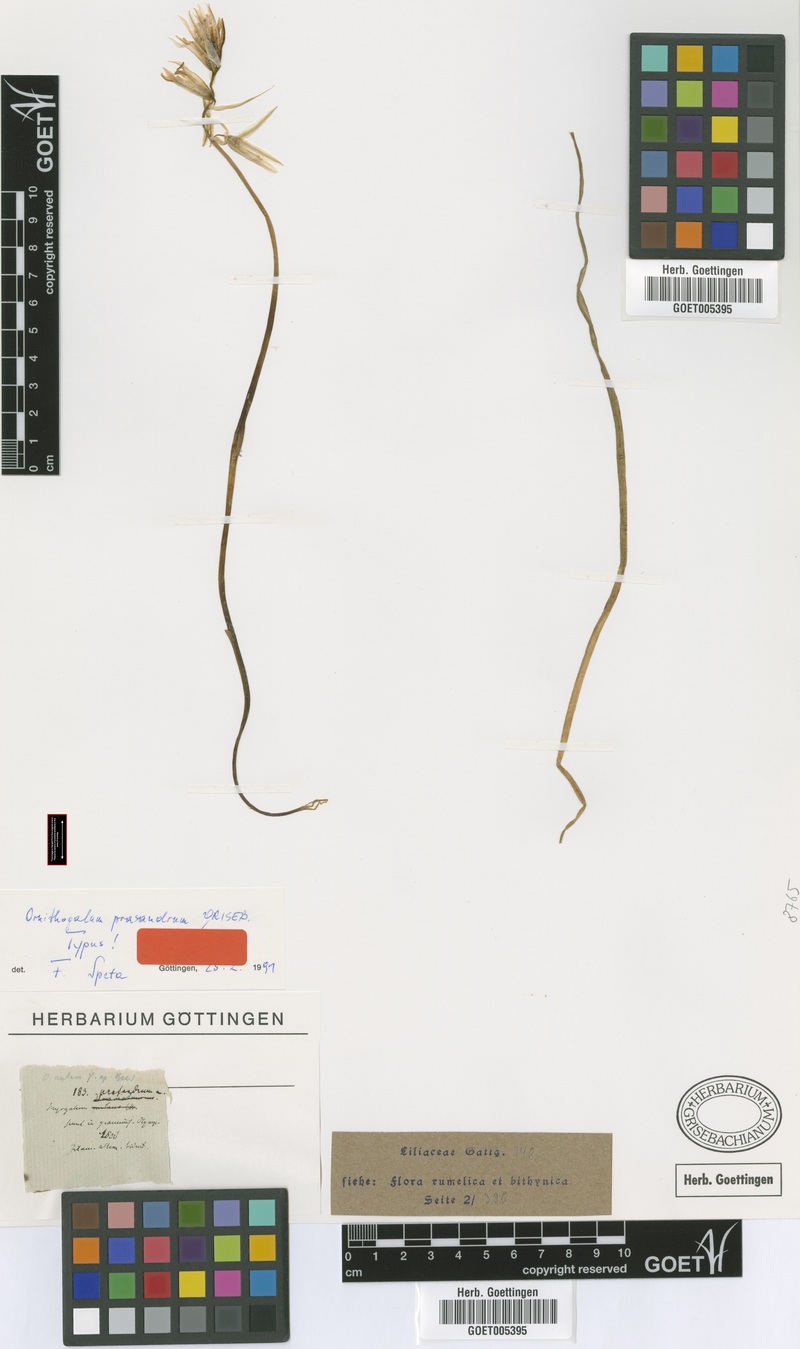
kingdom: Plantae
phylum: Tracheophyta
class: Liliopsida
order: Asparagales
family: Asparagaceae
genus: Ornithogalum
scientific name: Ornithogalum nutans
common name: Drooping star-of-bethlehem
